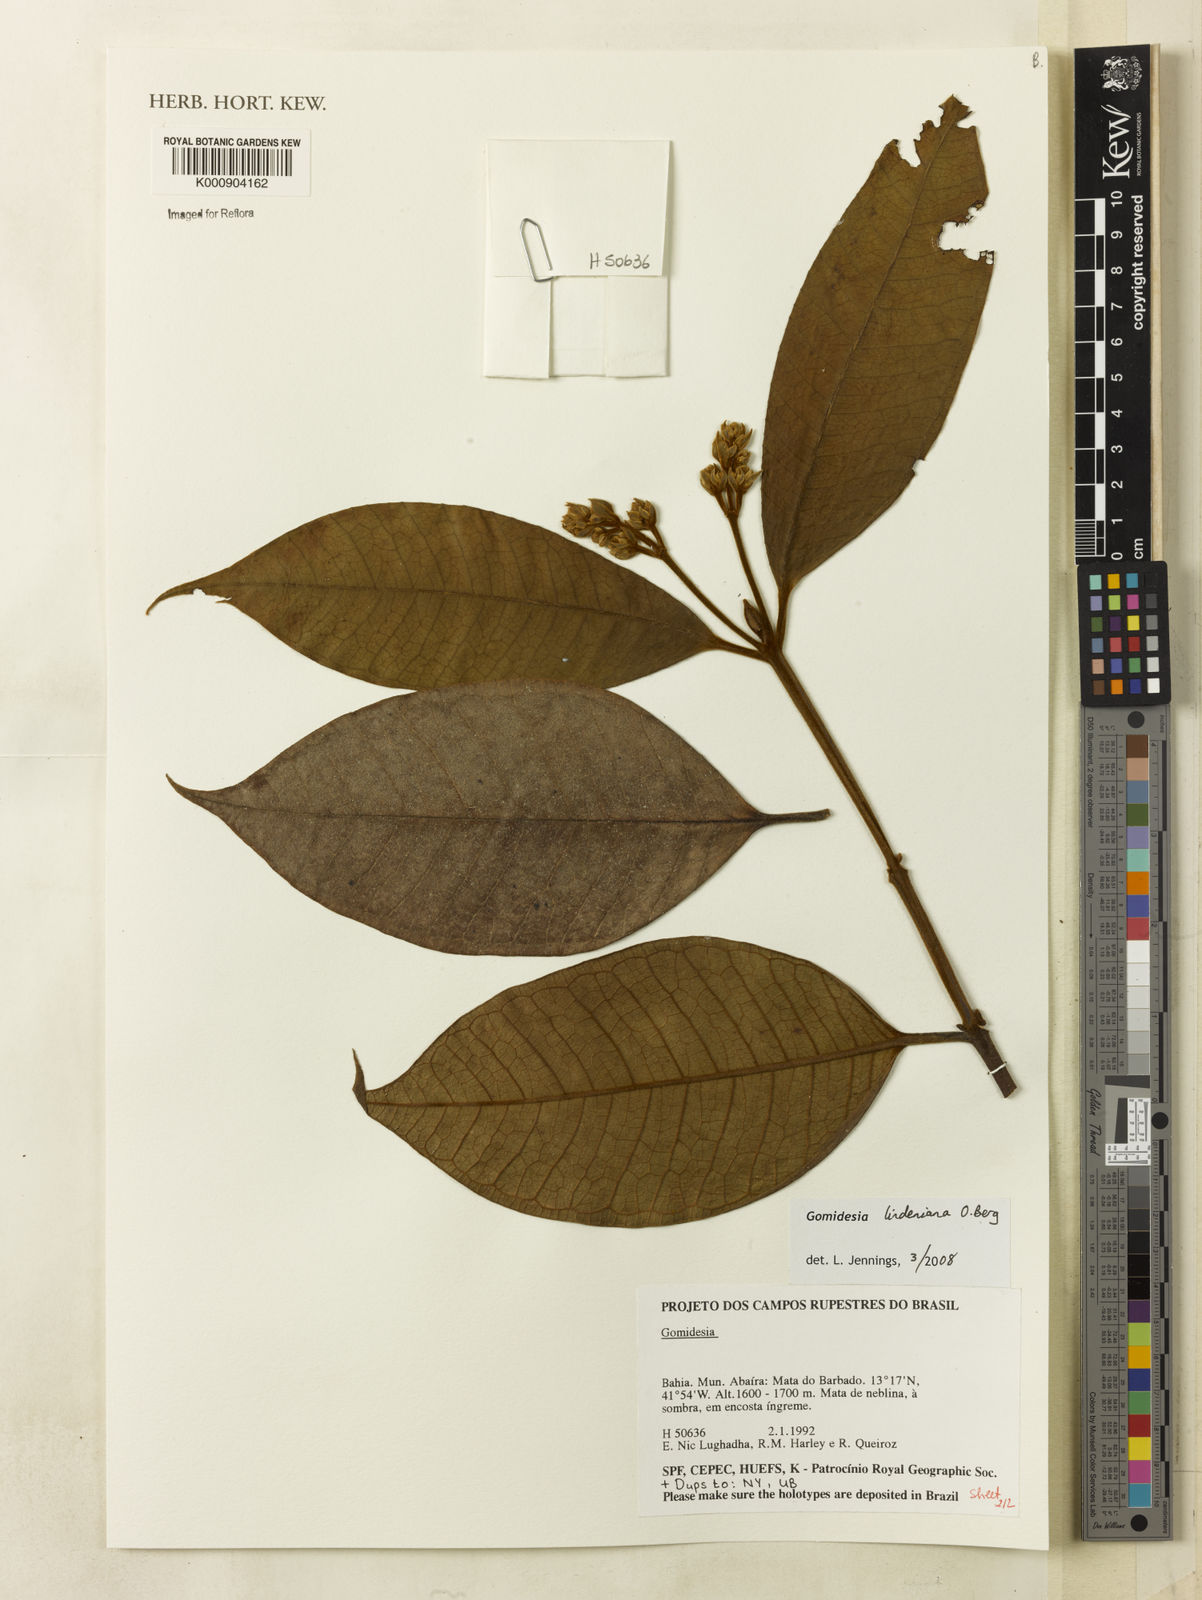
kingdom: Plantae
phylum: Tracheophyta
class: Magnoliopsida
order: Myrtales
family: Myrtaceae
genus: Myrcia
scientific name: Myrcia fenzliana
